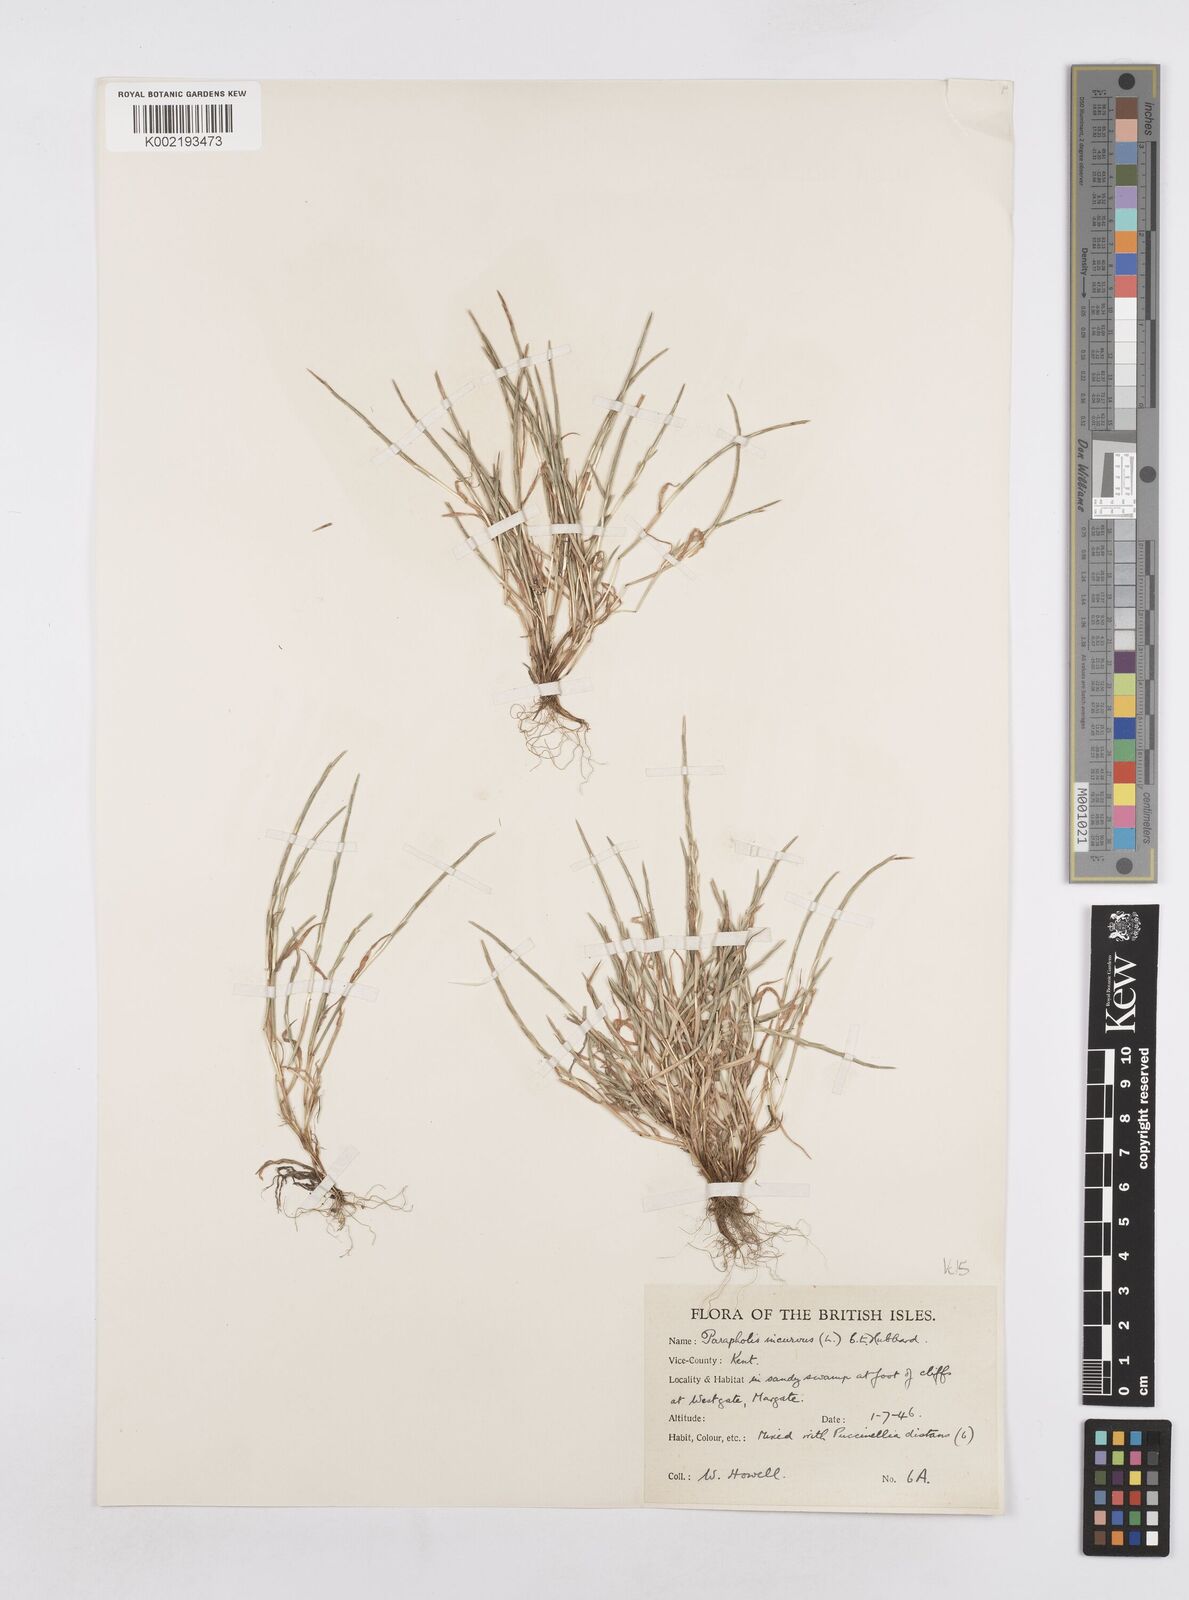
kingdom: Plantae
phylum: Tracheophyta
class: Liliopsida
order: Poales
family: Poaceae
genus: Parapholis
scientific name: Parapholis incurva
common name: Curved sicklegrass
